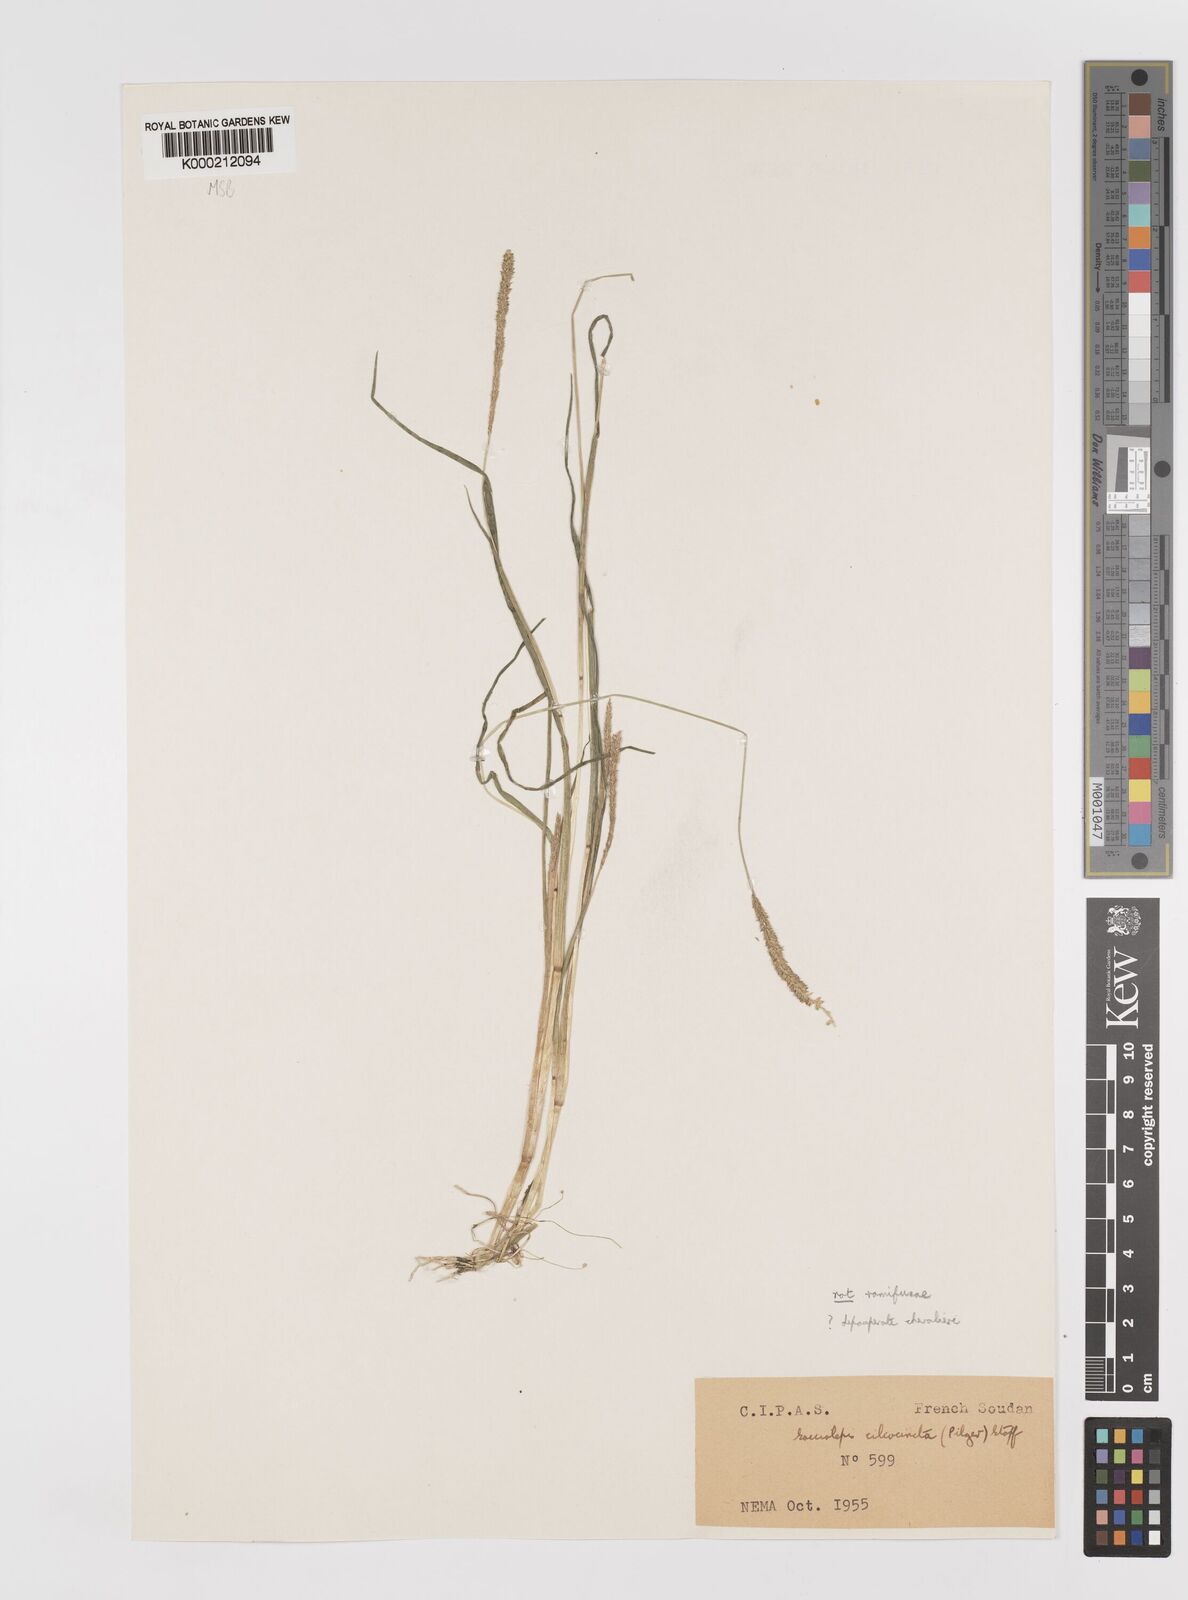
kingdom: Plantae
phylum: Tracheophyta
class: Liliopsida
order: Poales
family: Poaceae
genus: Sacciolepis
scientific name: Sacciolepis chevalieri
